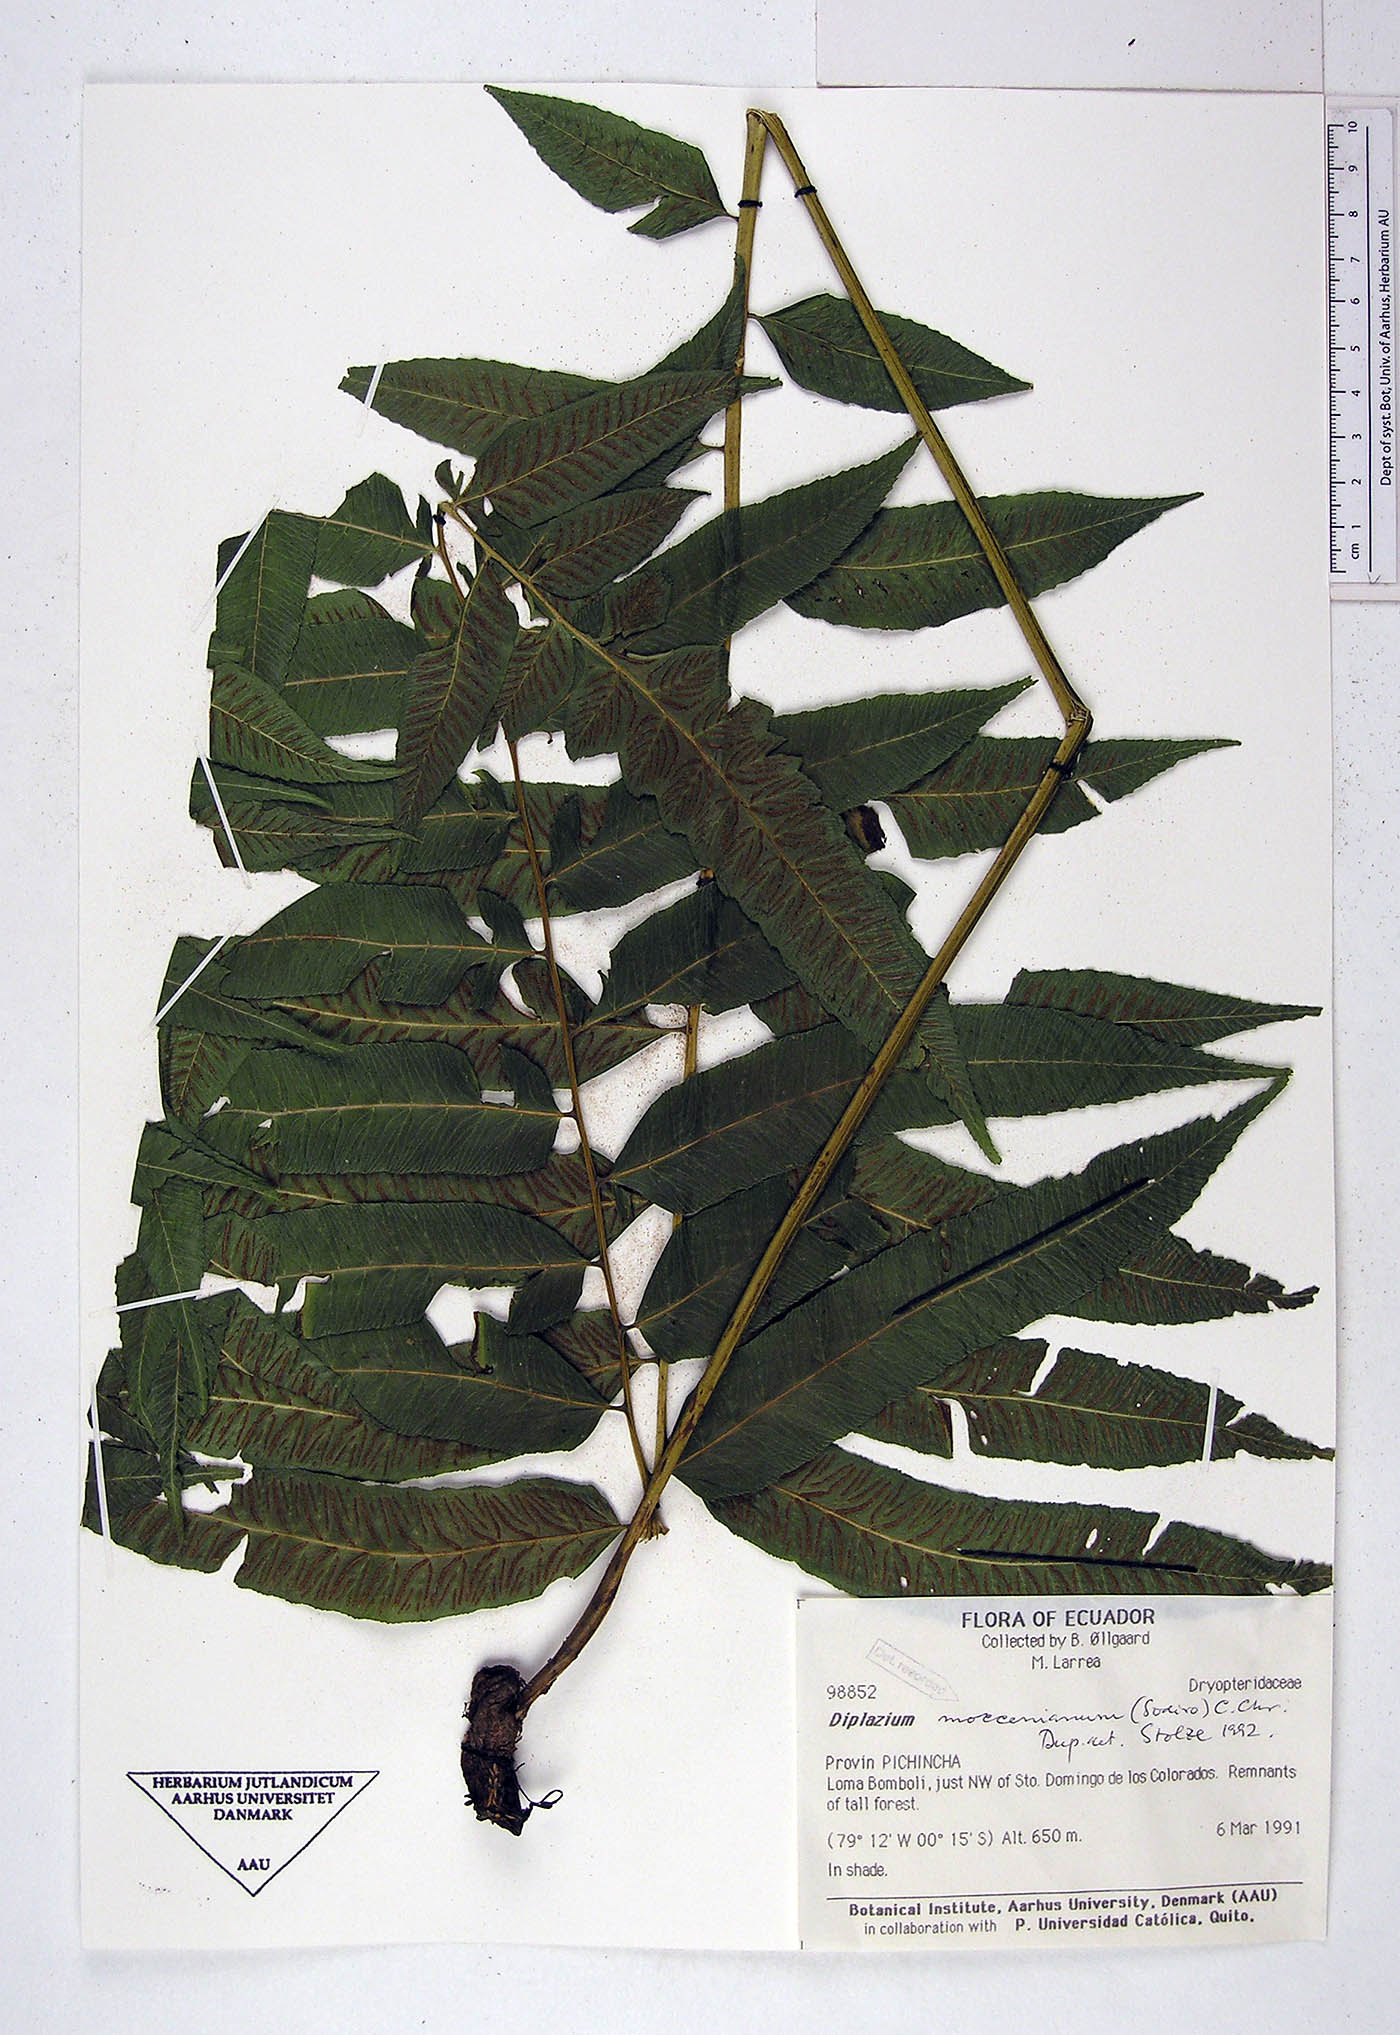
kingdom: Plantae
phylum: Tracheophyta
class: Polypodiopsida
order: Polypodiales
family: Athyriaceae
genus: Diplazium
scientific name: Diplazium moccennianum
